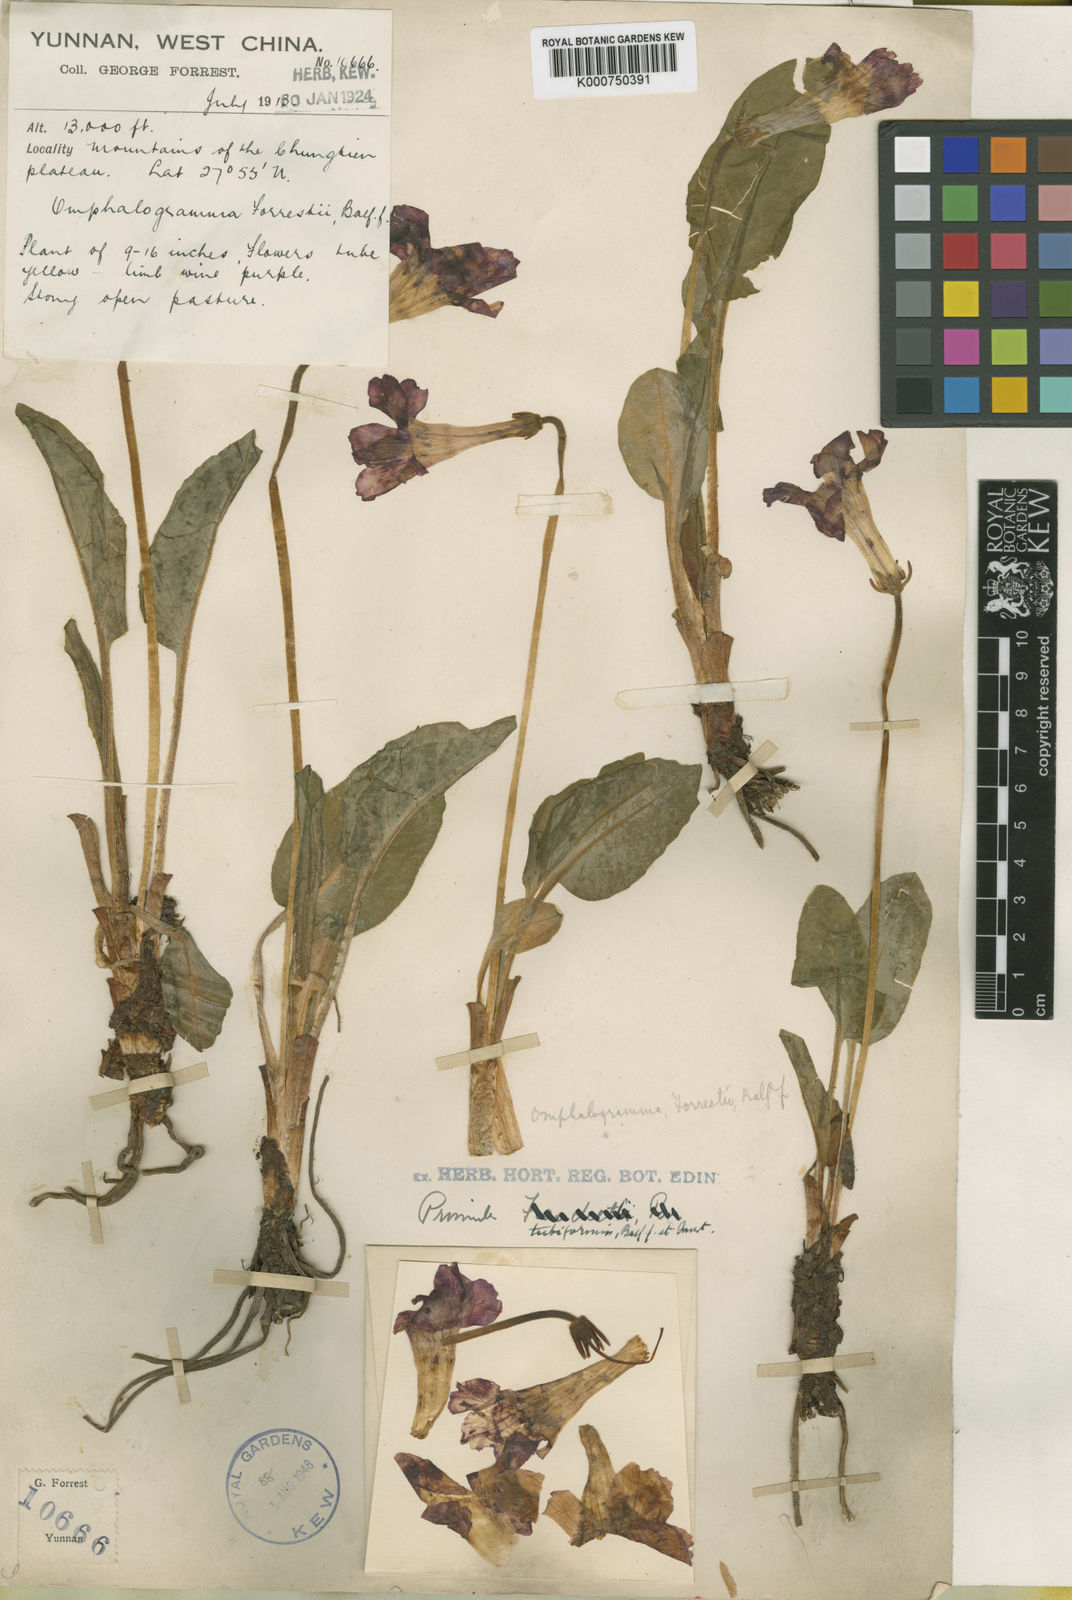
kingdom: Plantae
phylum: Tracheophyta
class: Magnoliopsida
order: Ericales
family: Primulaceae
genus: Omphalogramma
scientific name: Omphalogramma forrestii
